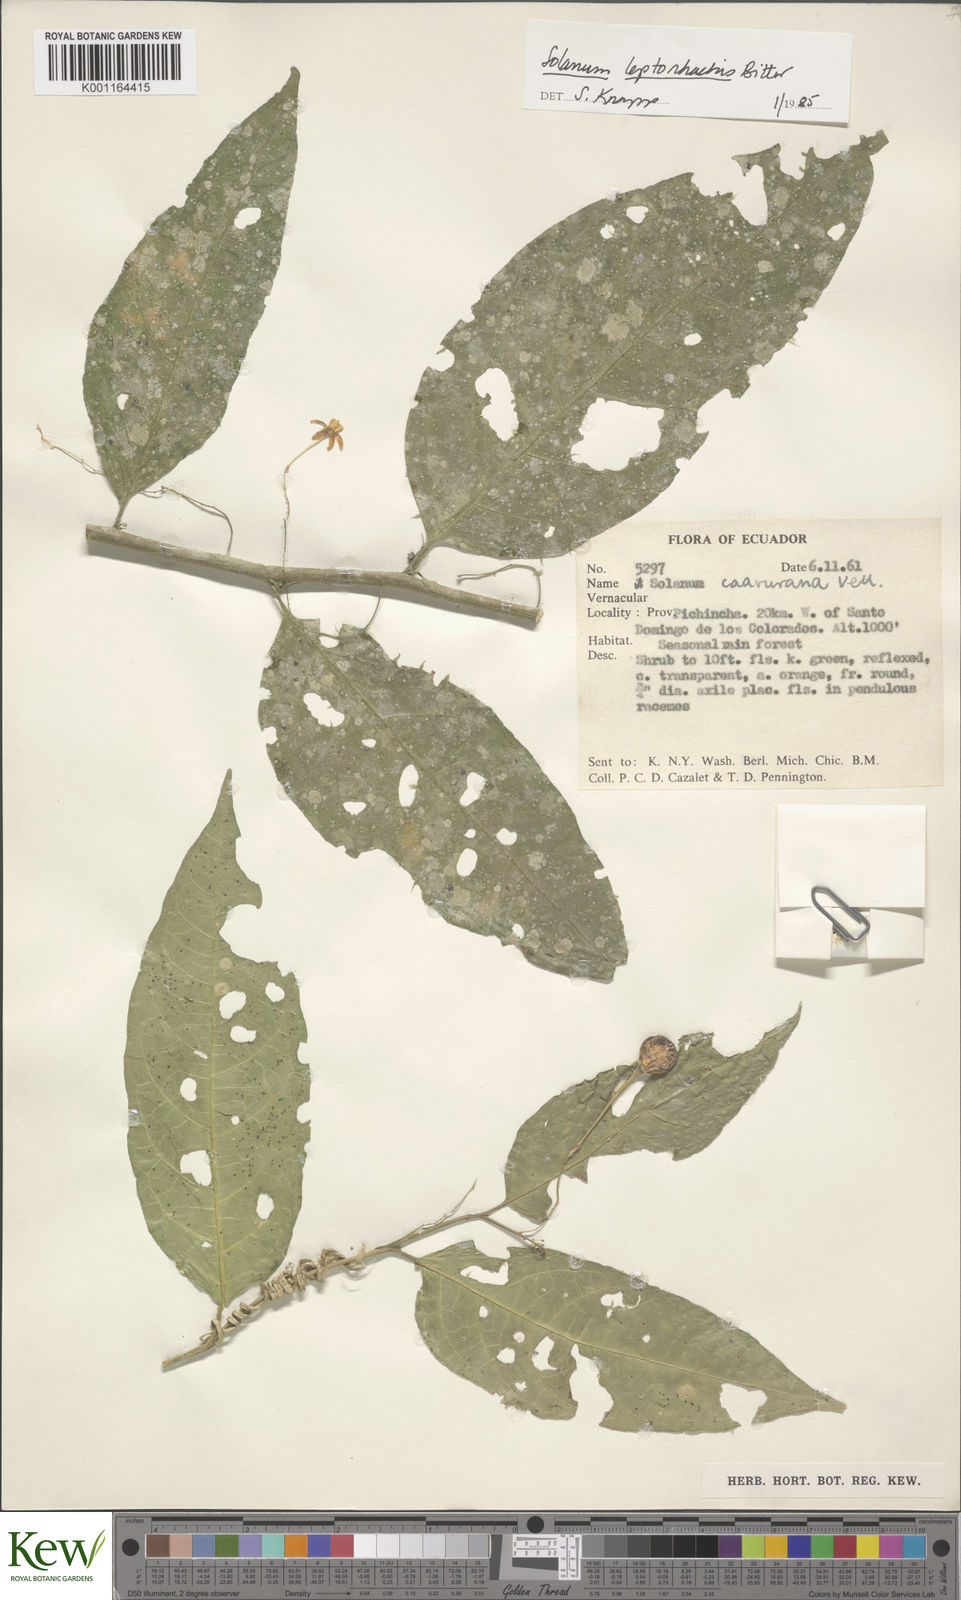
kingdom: Plantae
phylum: Tracheophyta
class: Magnoliopsida
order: Solanales
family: Solanaceae
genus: Solanum
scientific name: Solanum leptorhachis
